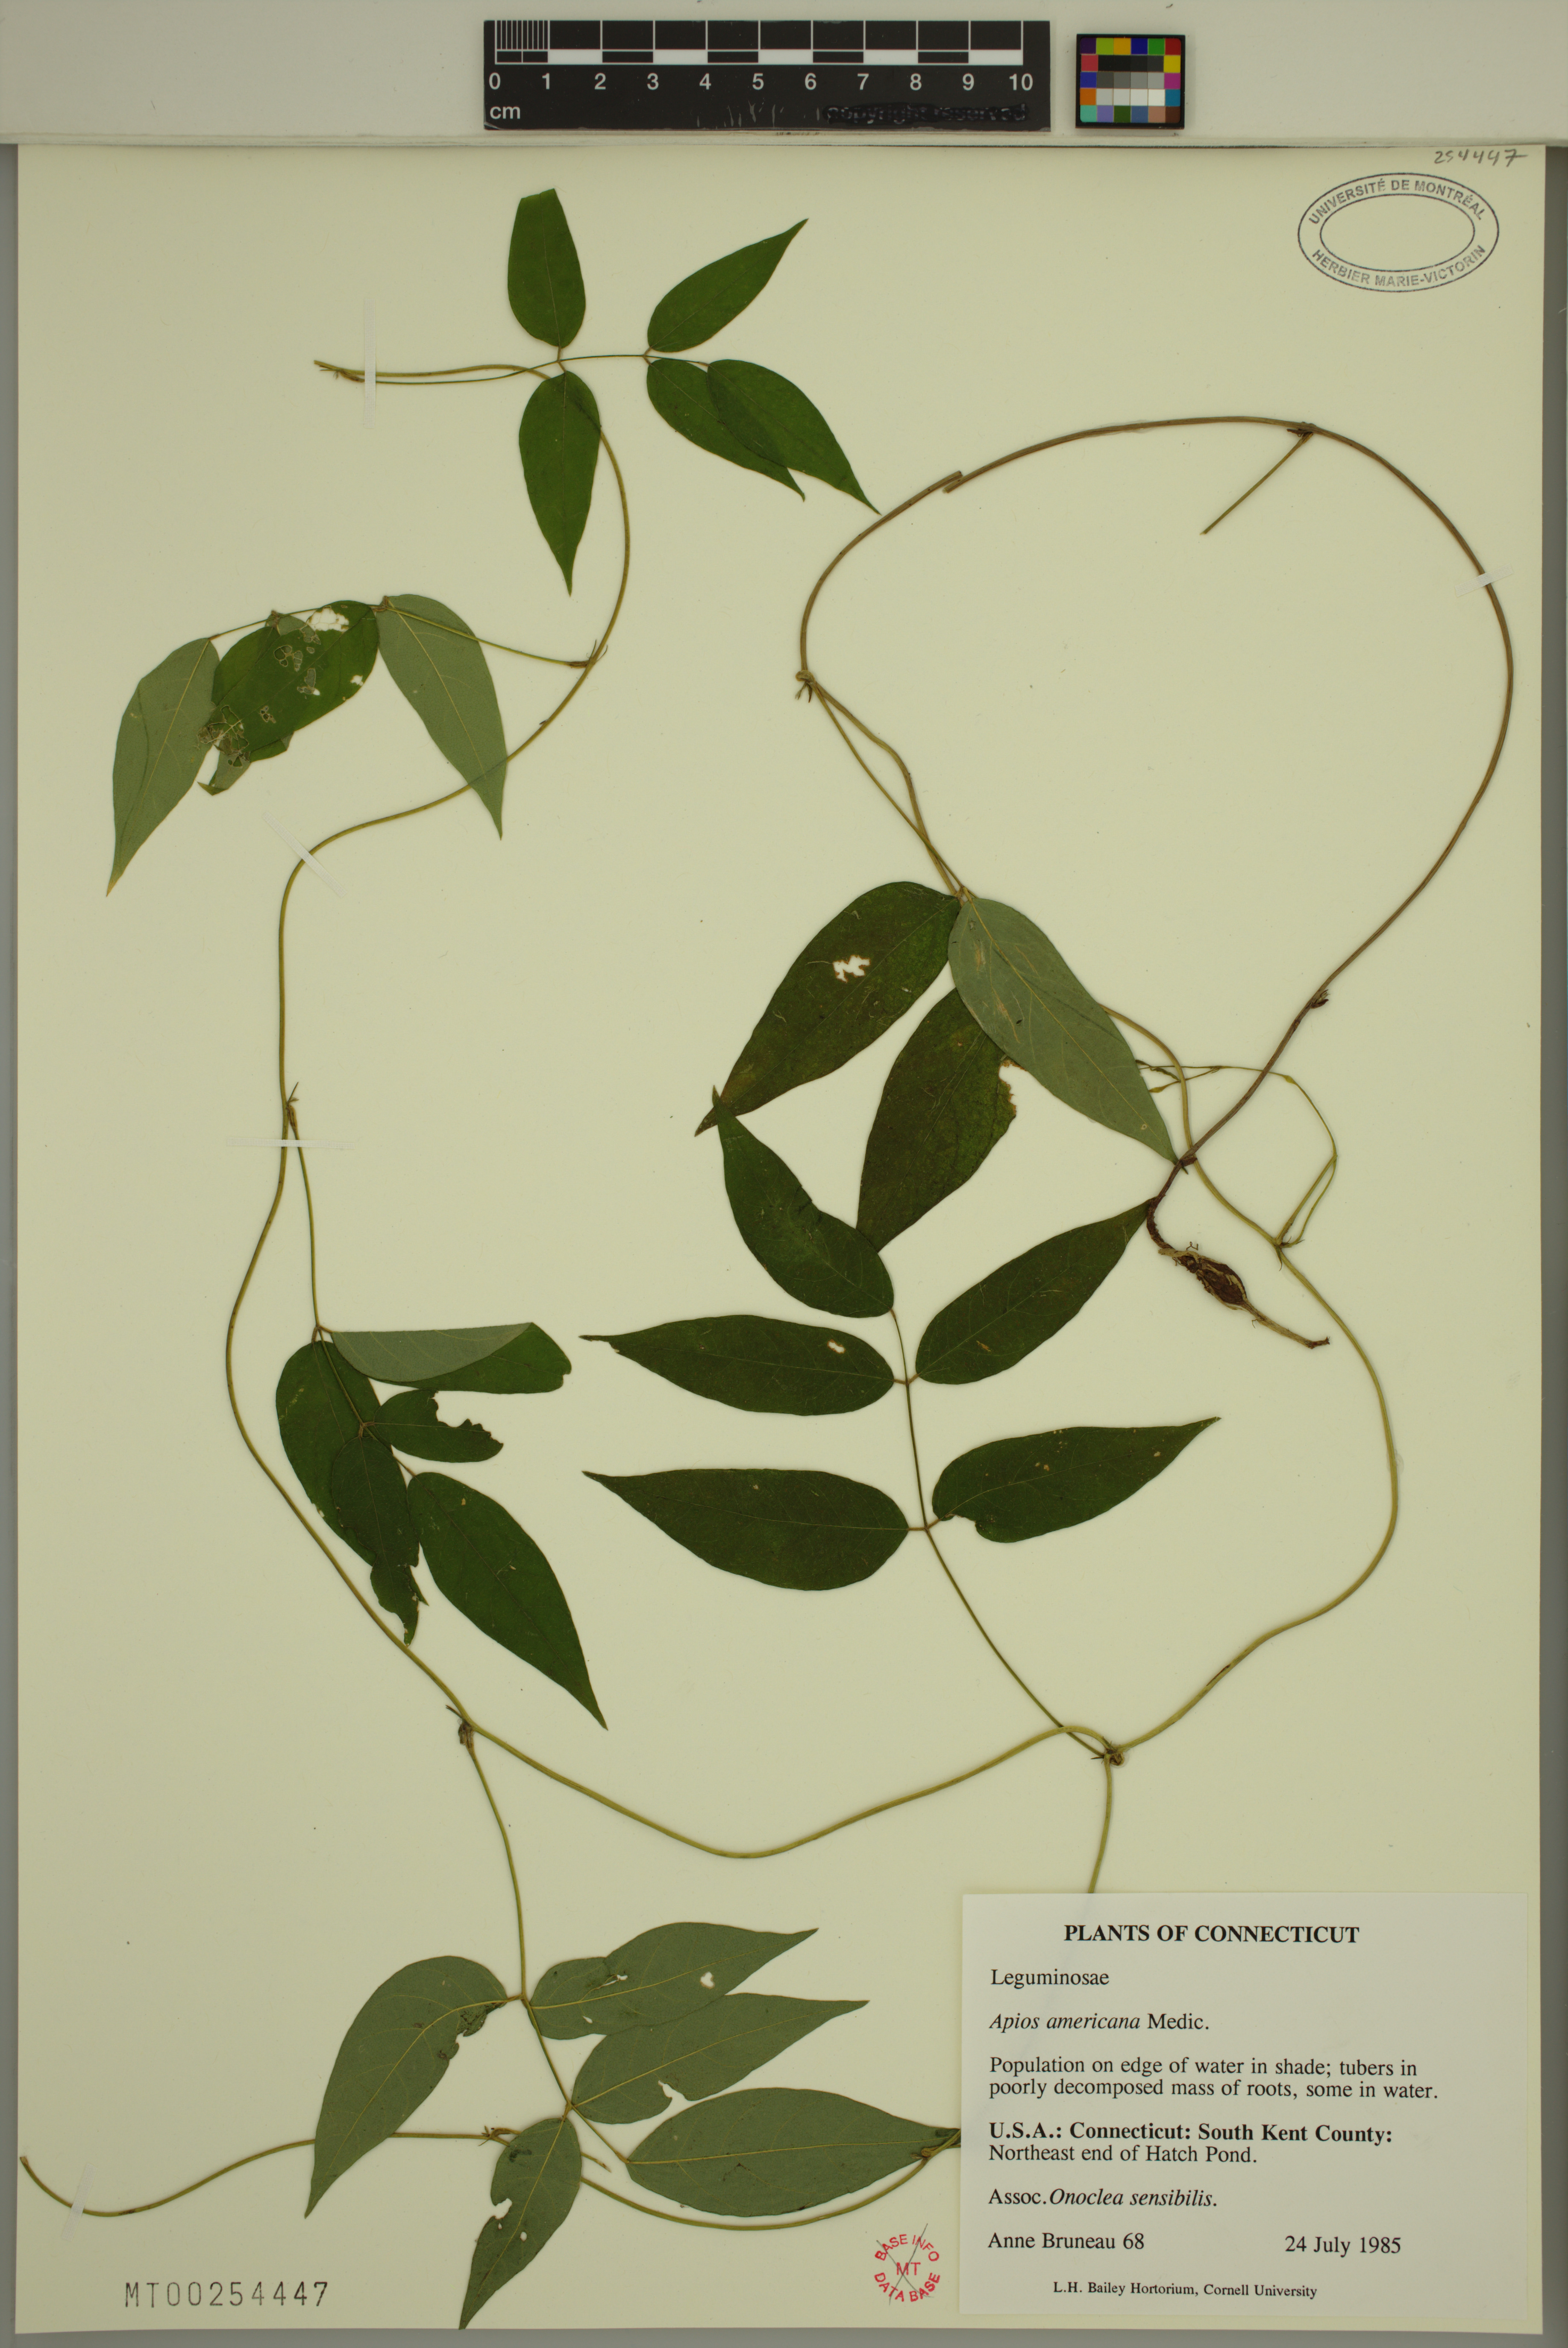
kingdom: Plantae
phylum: Tracheophyta
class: Magnoliopsida
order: Fabales
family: Fabaceae
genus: Apios
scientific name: Apios americana
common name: American potato-bean
